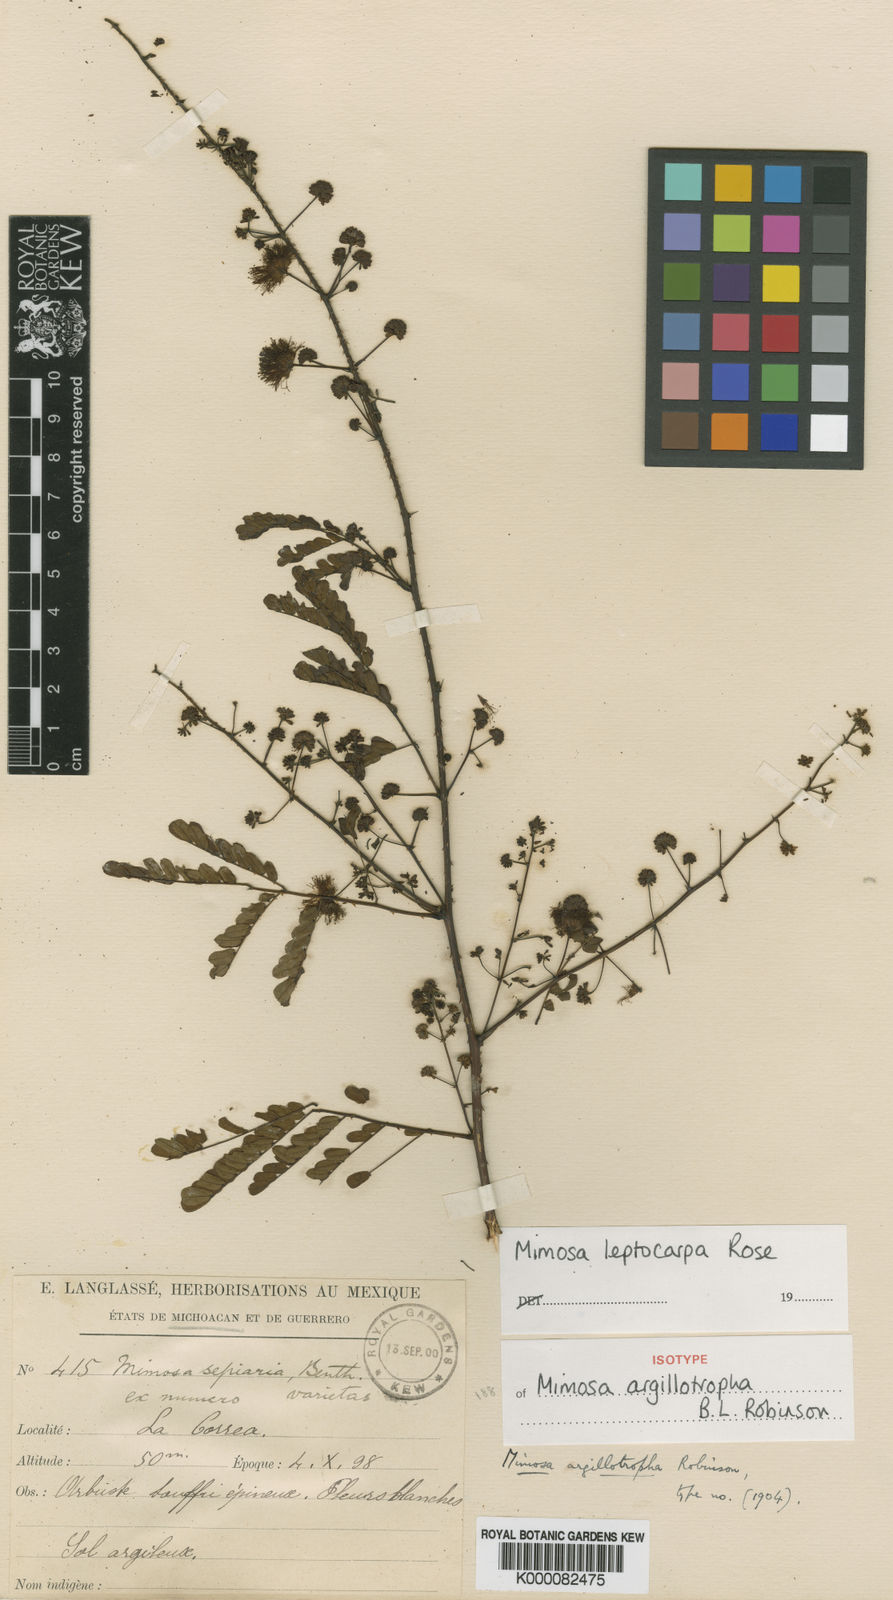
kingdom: Plantae
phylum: Tracheophyta
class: Magnoliopsida
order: Fabales
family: Fabaceae
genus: Mimosa
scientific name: Mimosa leptocarpa
